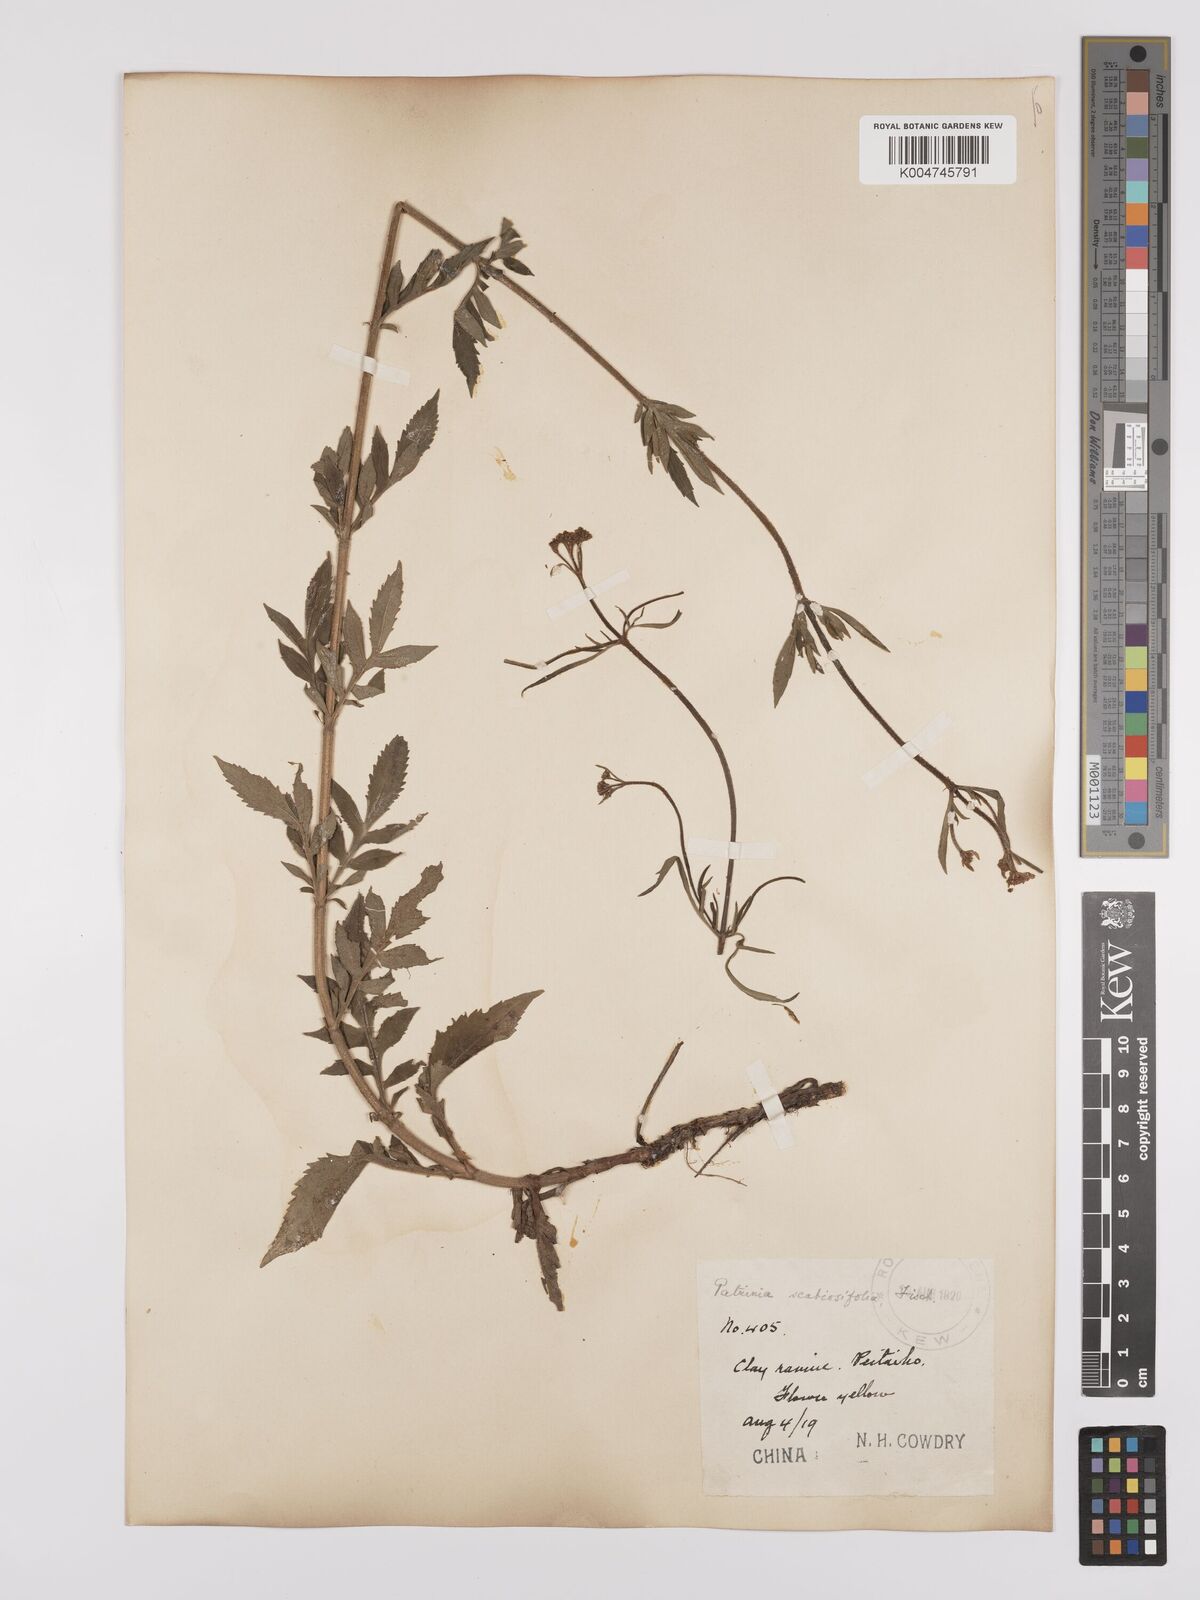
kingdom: Plantae
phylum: Tracheophyta
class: Magnoliopsida
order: Dipsacales
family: Caprifoliaceae
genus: Patrinia
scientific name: Patrinia scabiosifolia
